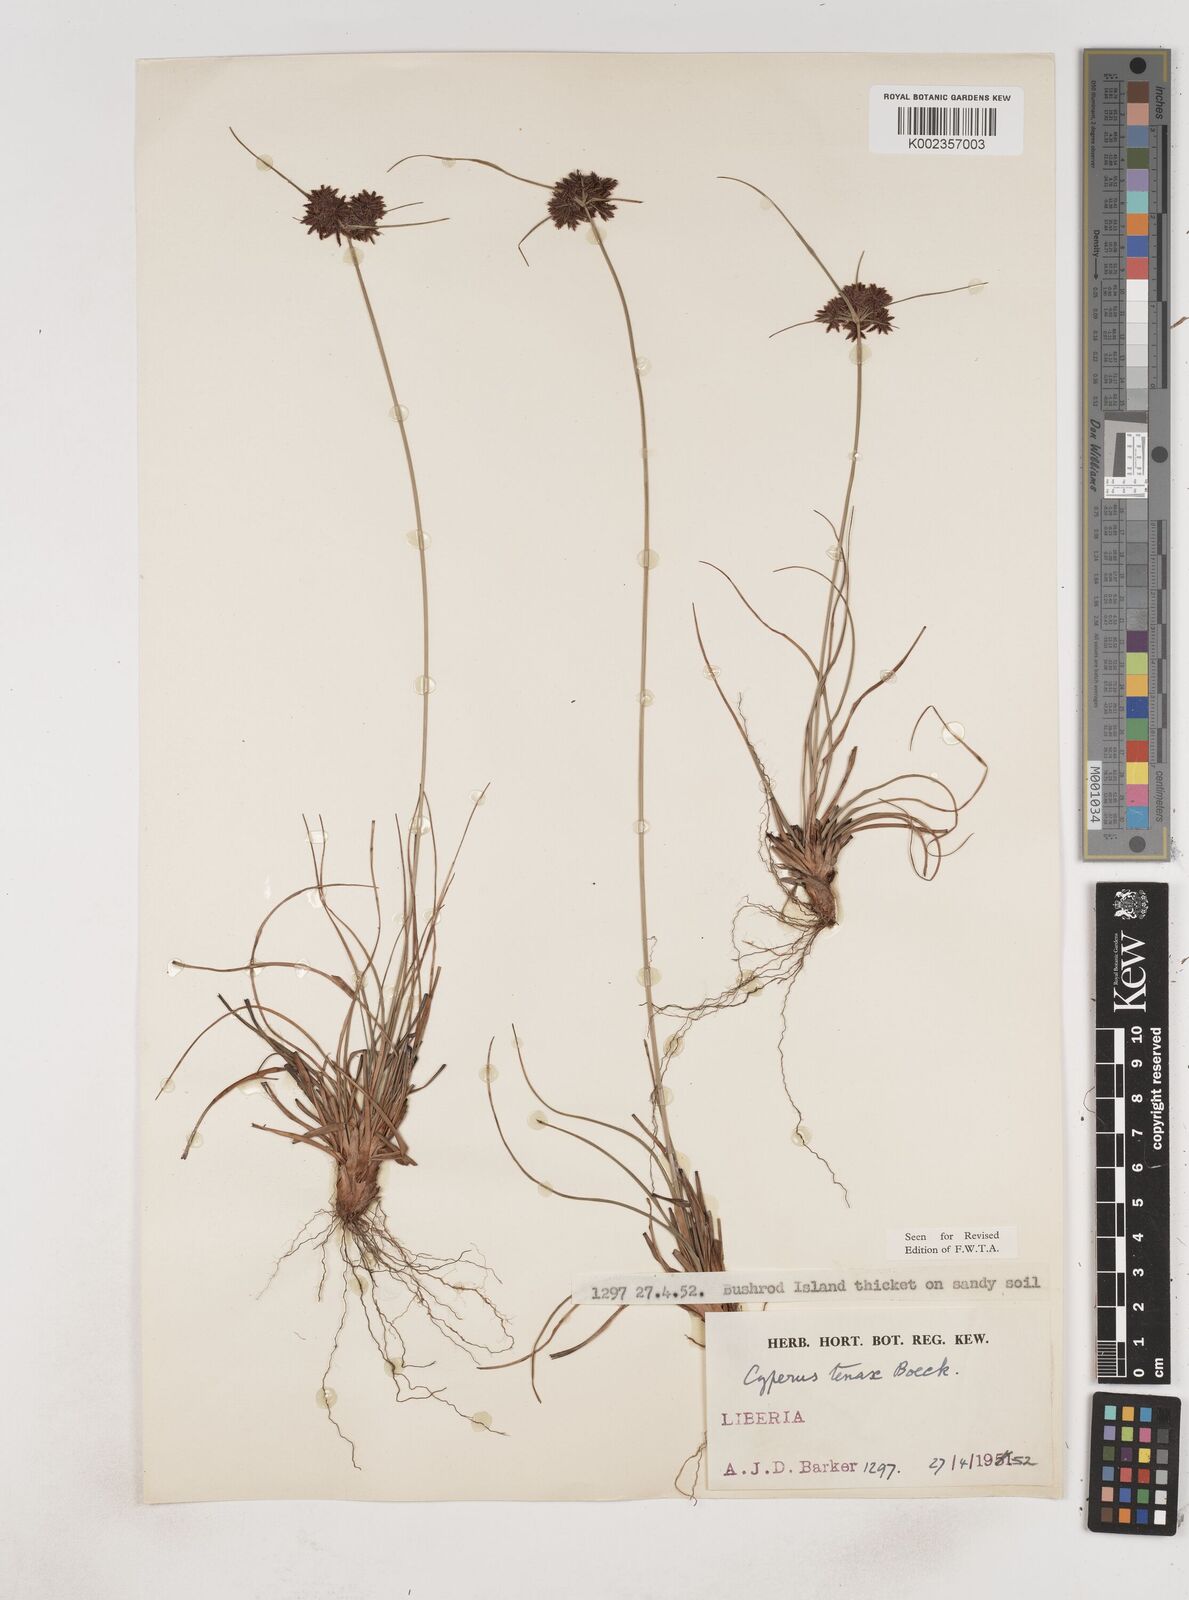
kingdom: Plantae
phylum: Tracheophyta
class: Liliopsida
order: Poales
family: Cyperaceae
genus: Cyperus
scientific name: Cyperus tenax
